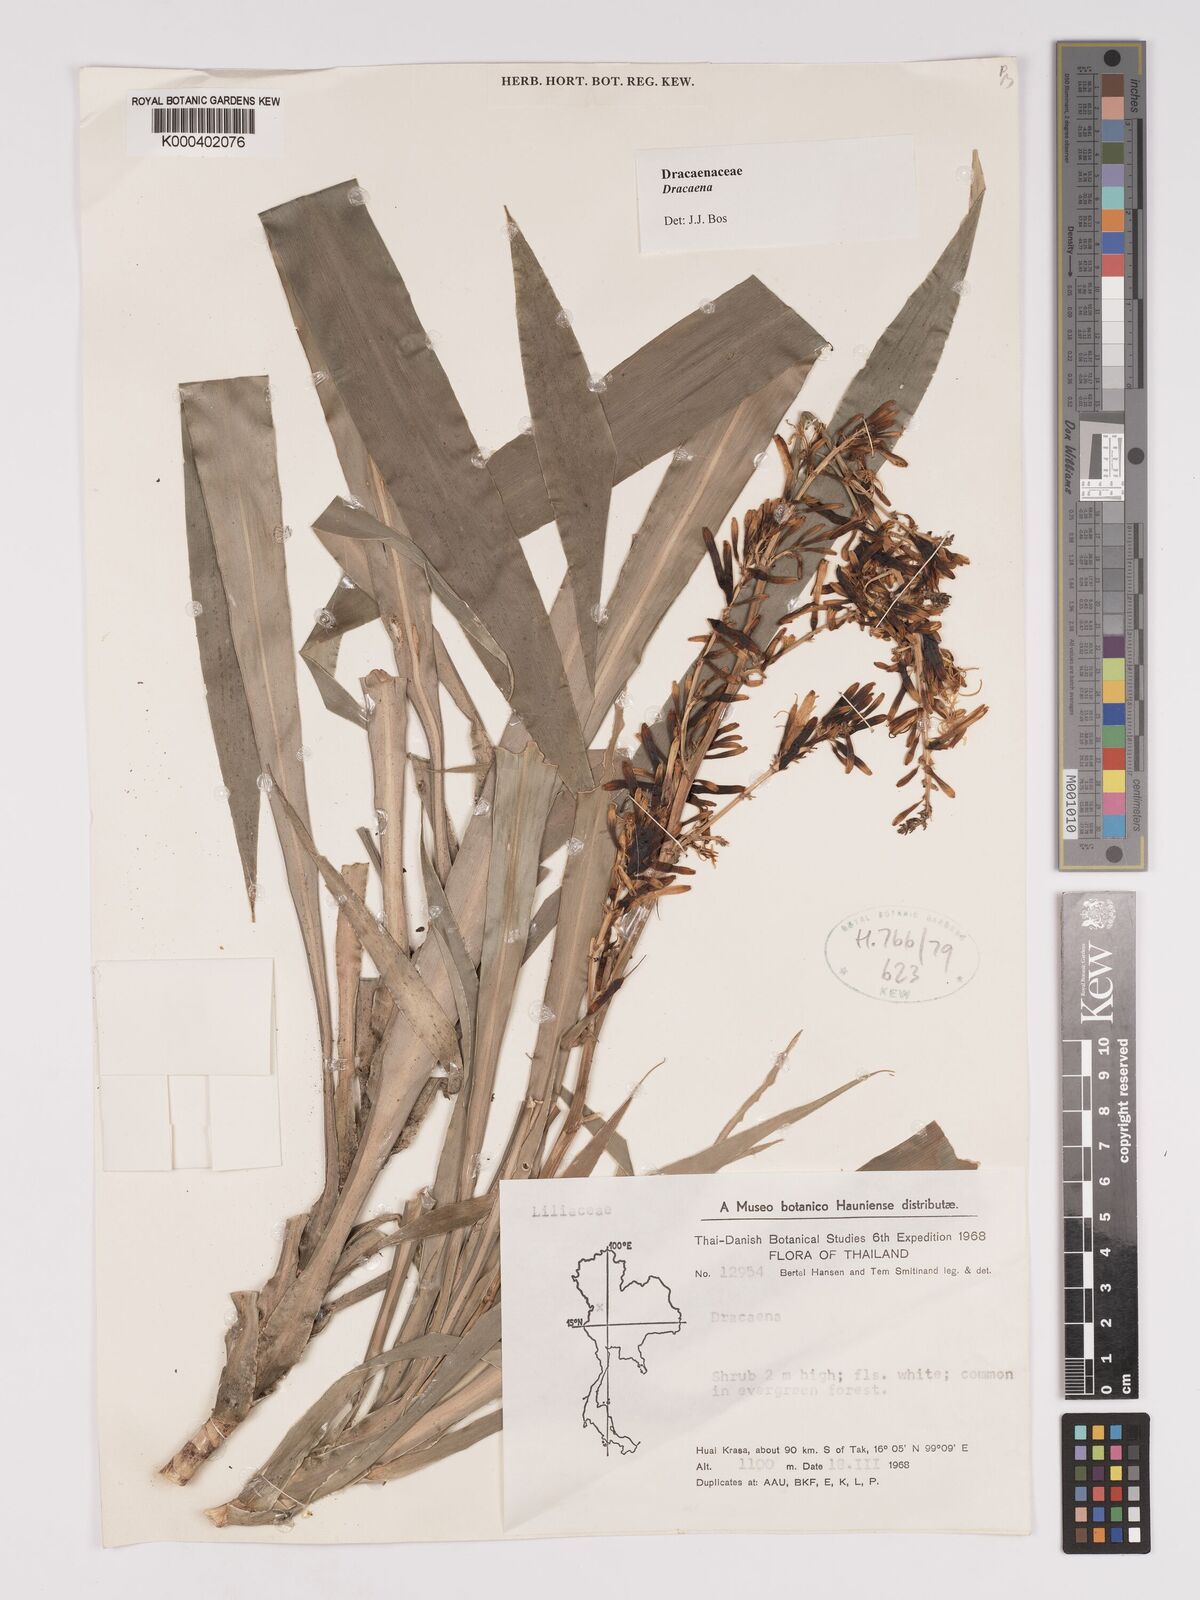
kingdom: Plantae
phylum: Tracheophyta
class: Liliopsida
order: Asparagales
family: Asparagaceae
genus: Dracaena
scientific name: Dracaena
